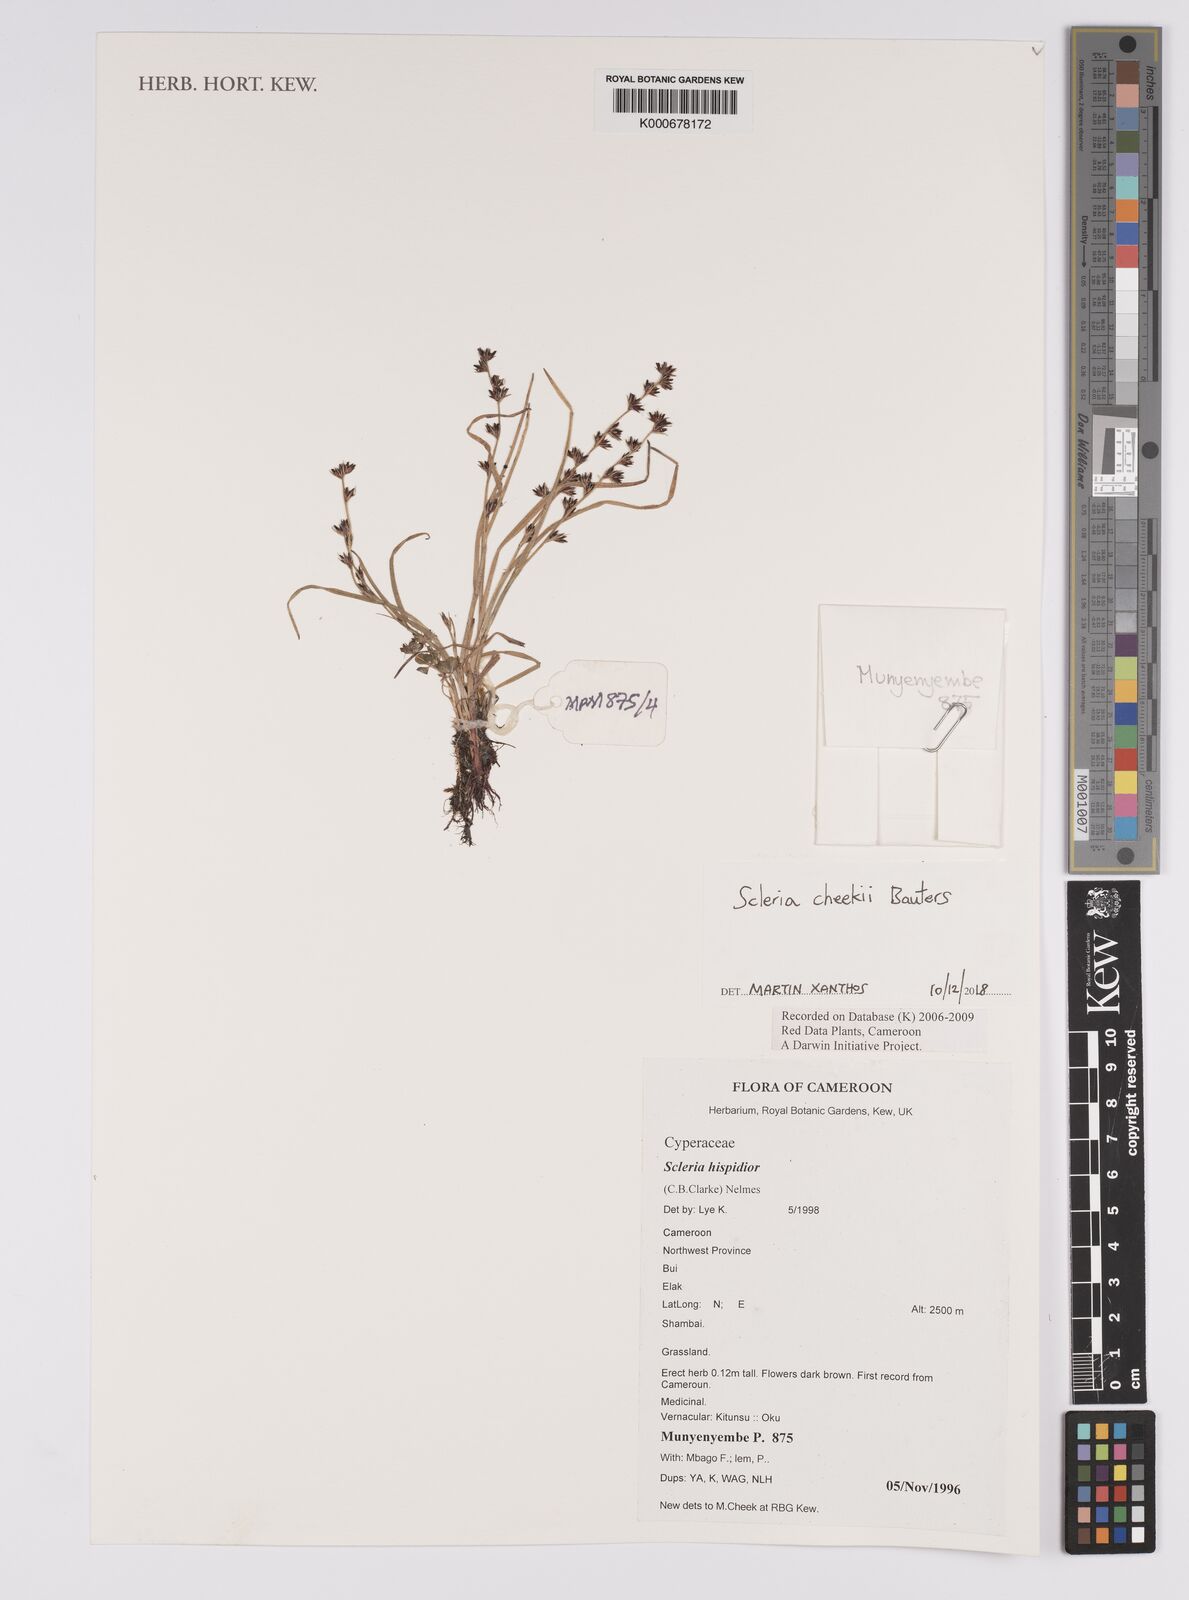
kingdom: Plantae
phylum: Tracheophyta
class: Liliopsida
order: Poales
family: Cyperaceae
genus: Scleria
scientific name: Scleria hispidior
